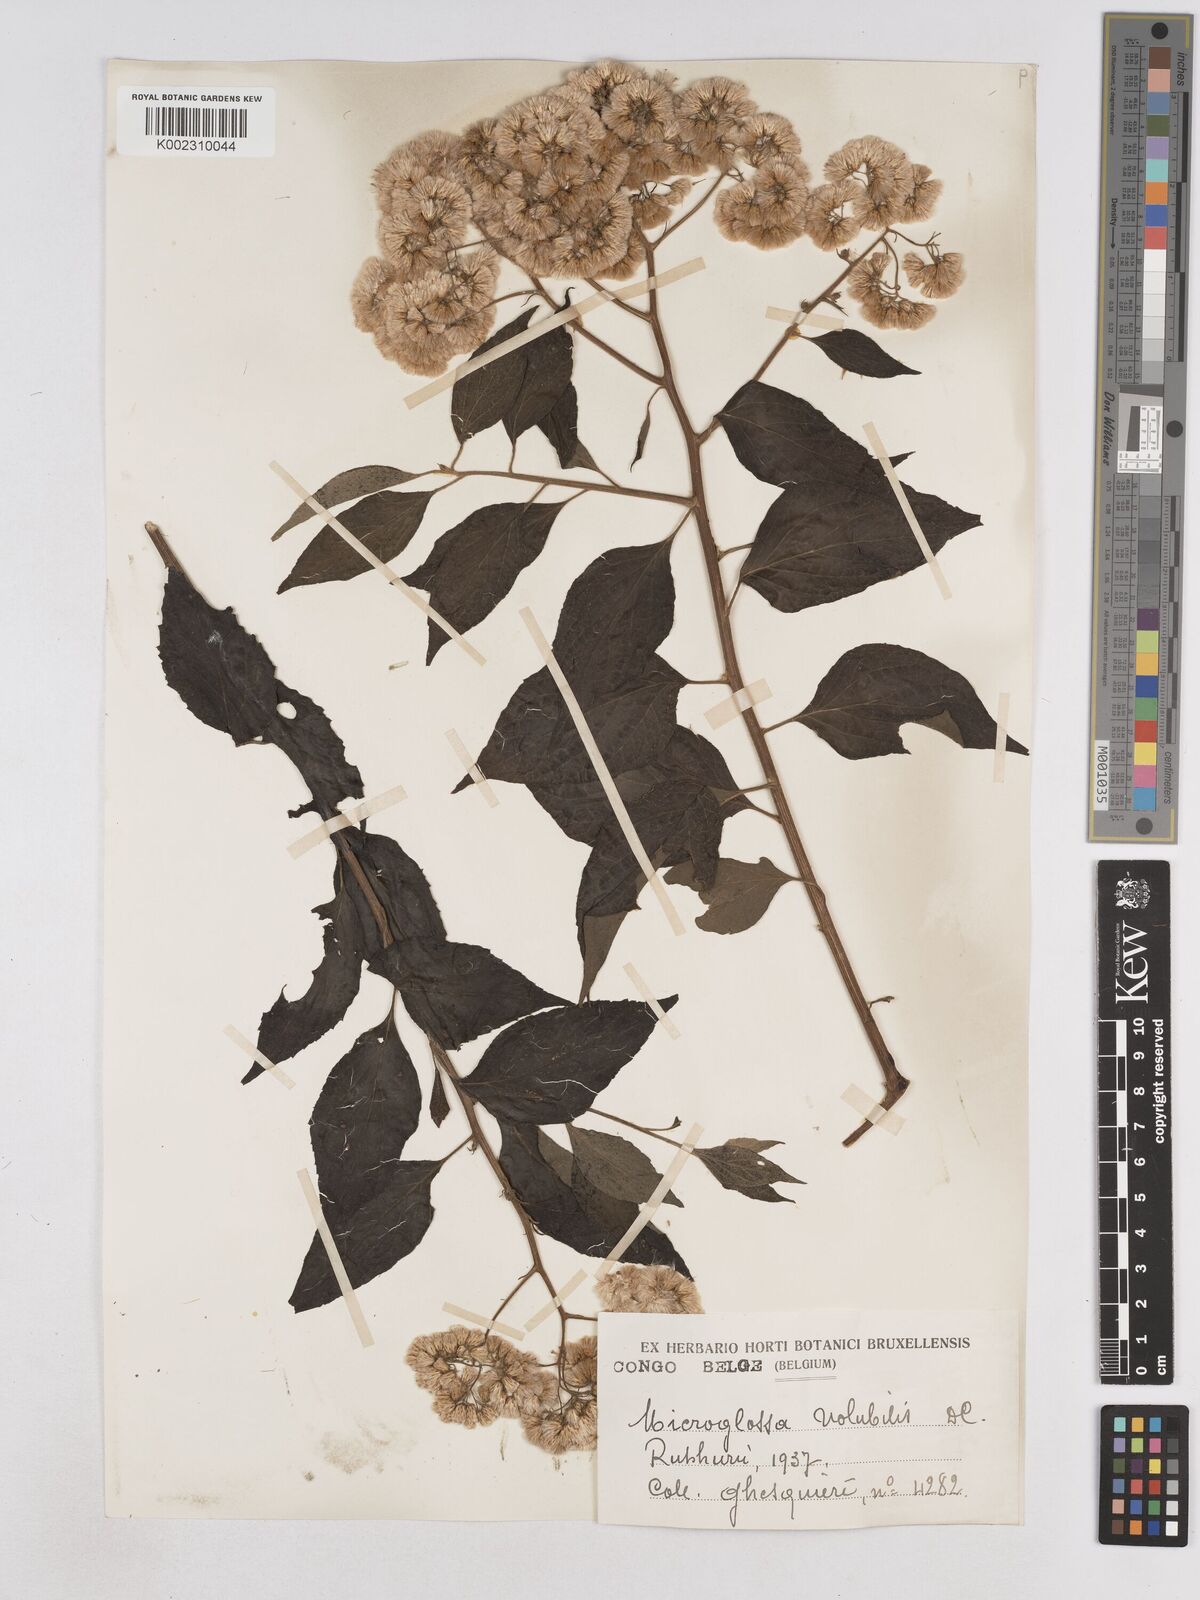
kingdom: Plantae
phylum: Tracheophyta
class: Magnoliopsida
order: Asterales
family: Asteraceae
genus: Microglossa
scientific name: Microglossa pyrifolia
